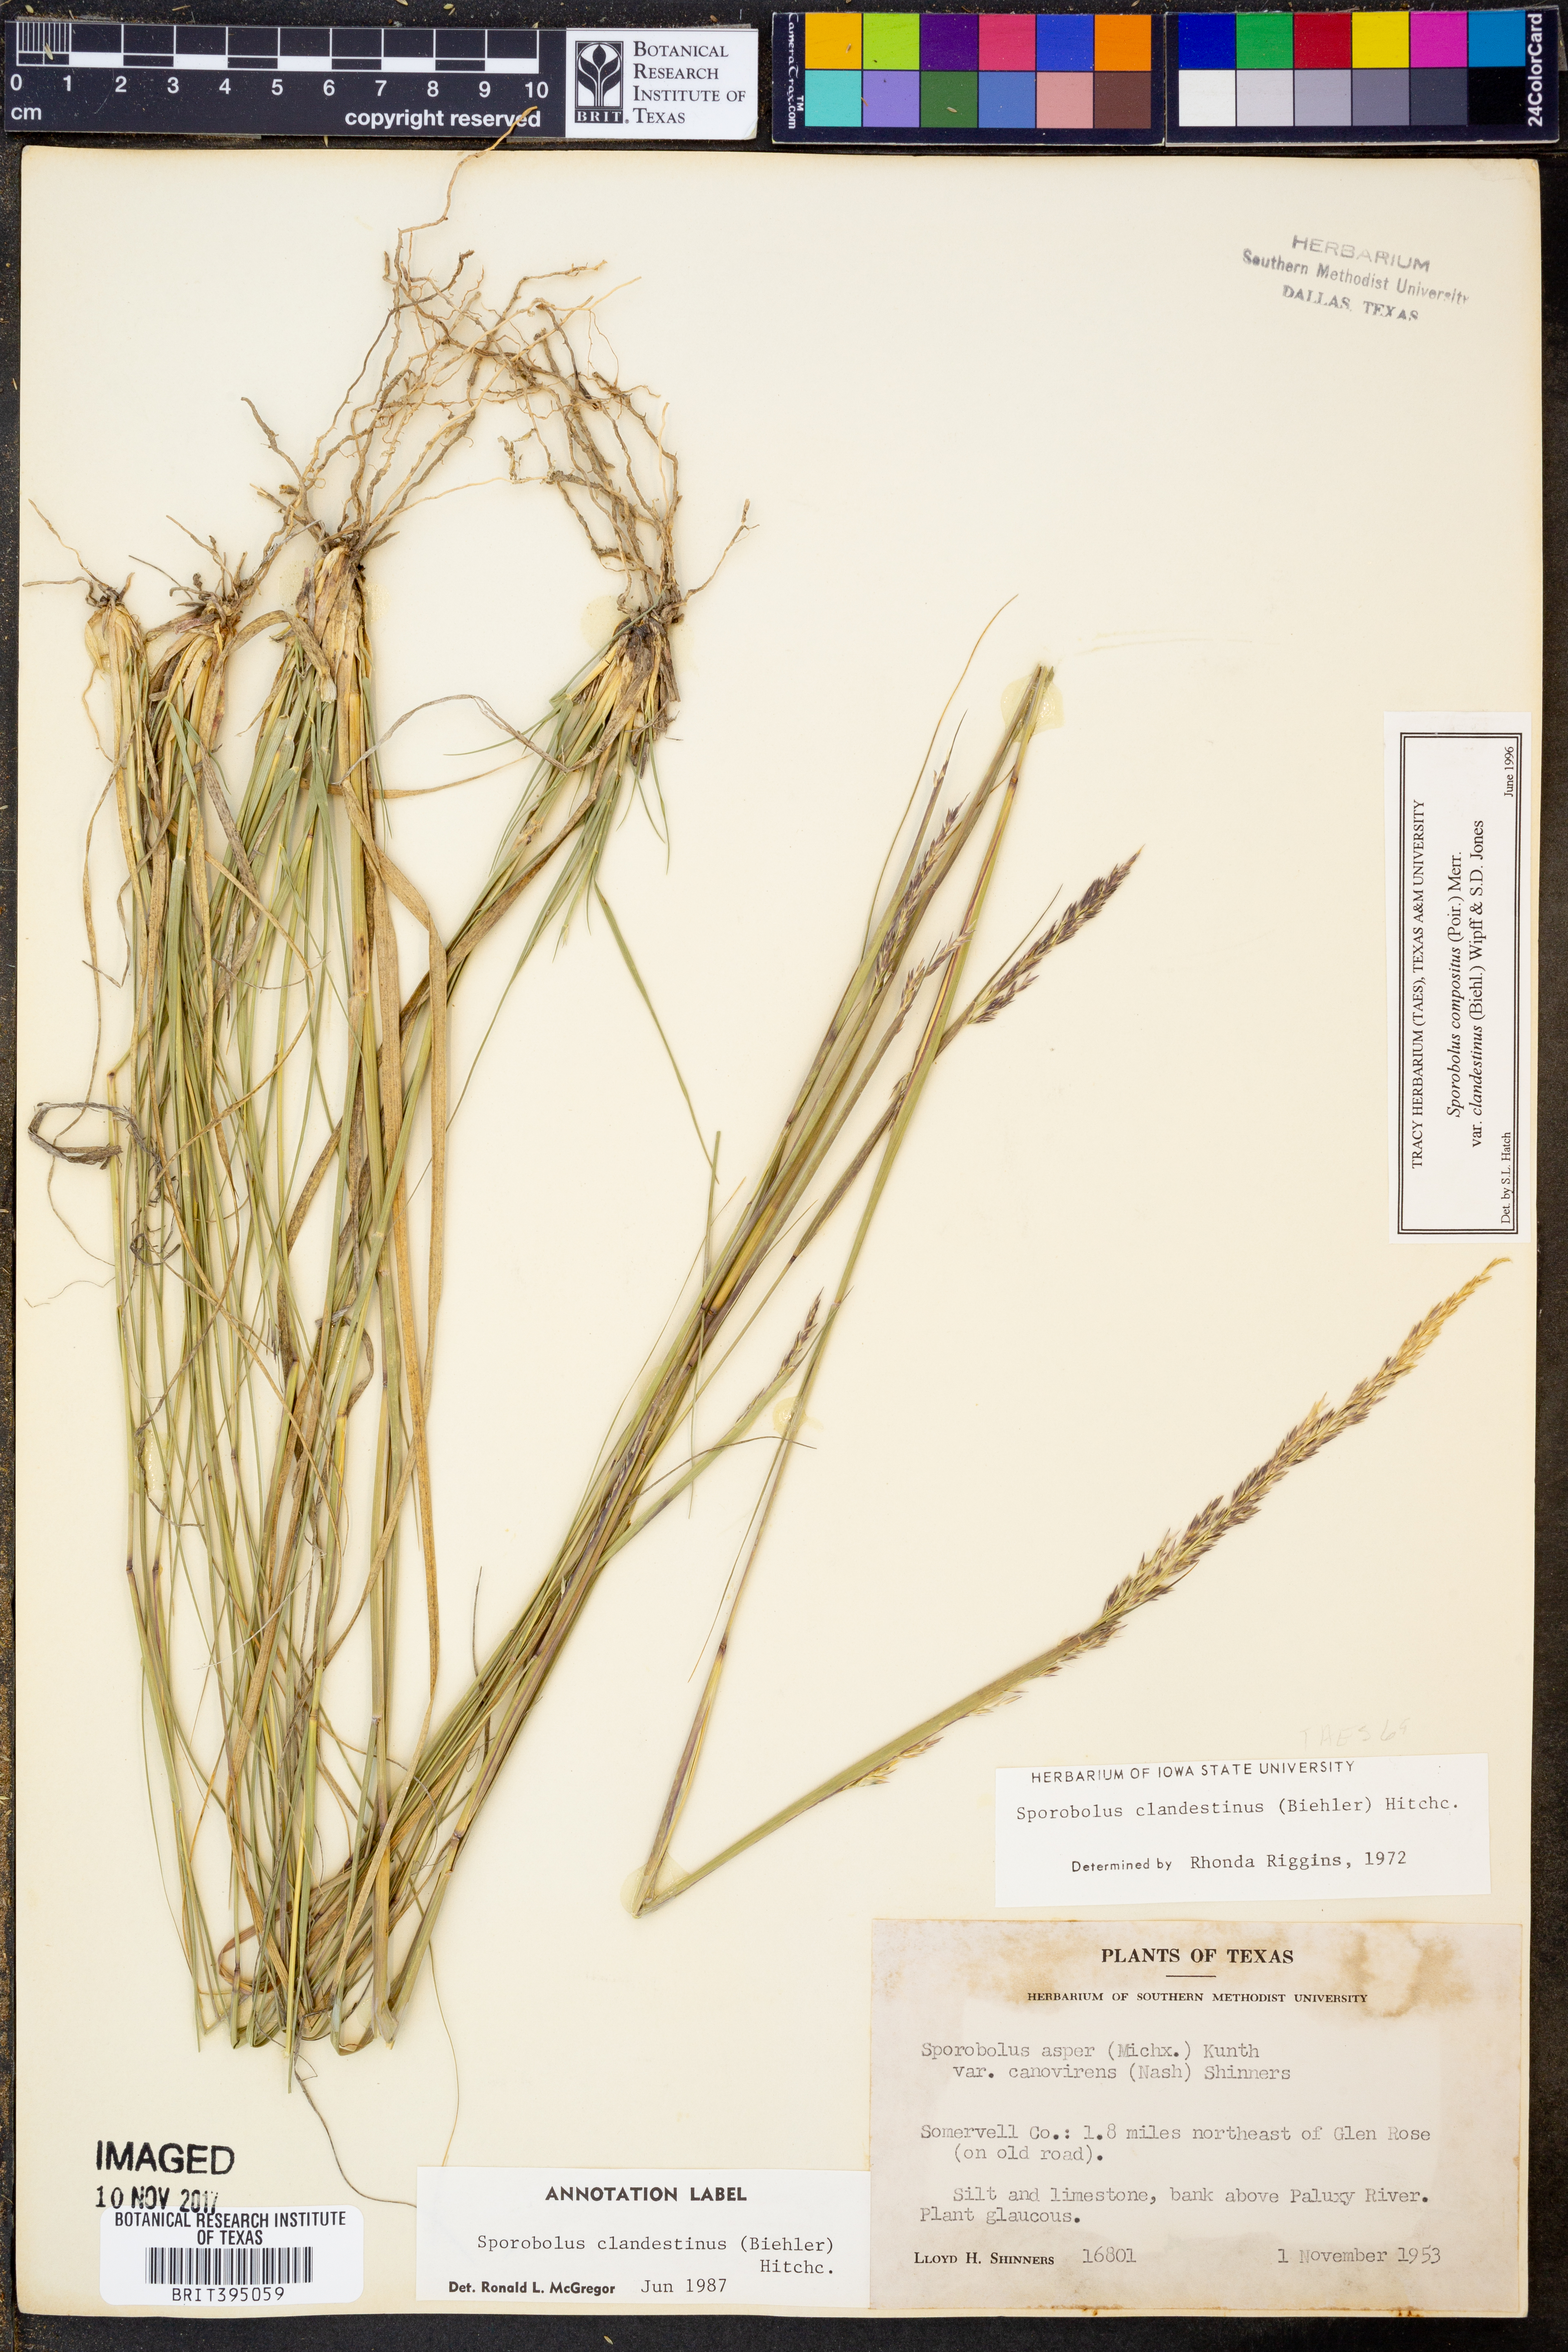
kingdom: Plantae
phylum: Tracheophyta
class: Liliopsida
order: Poales
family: Poaceae
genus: Sporobolus
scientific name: Sporobolus clandestinus
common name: Hidden dropseed
